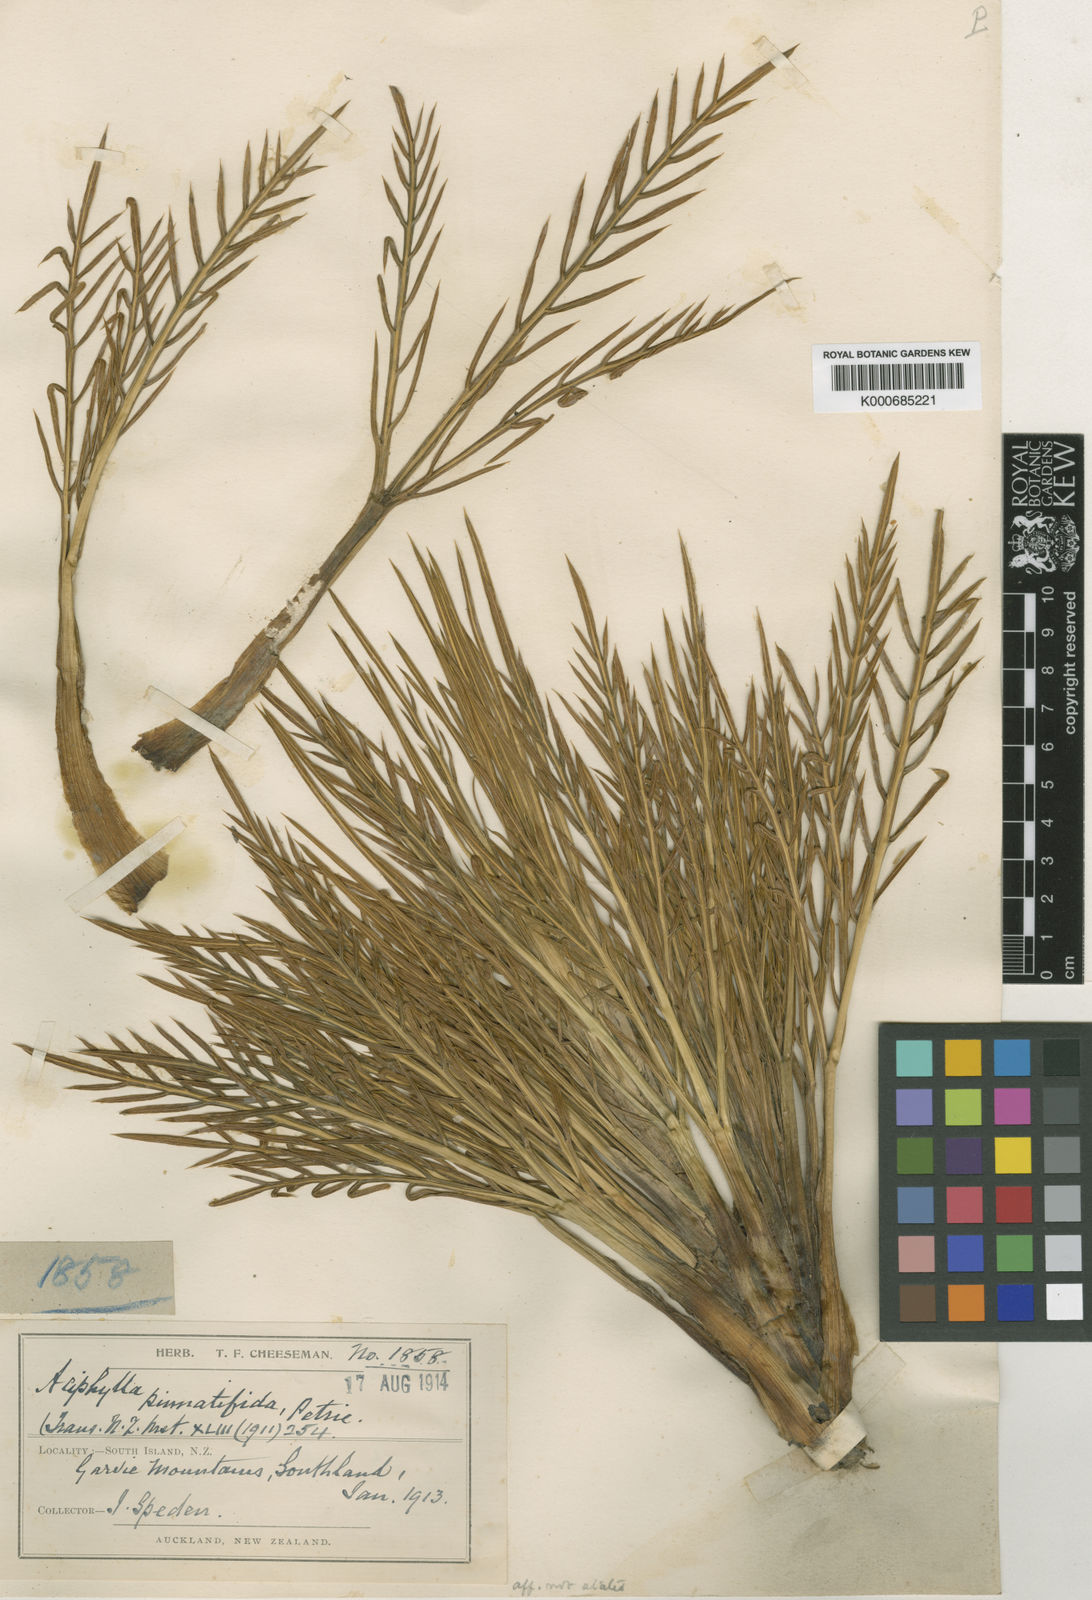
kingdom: Plantae
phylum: Tracheophyta
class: Magnoliopsida
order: Apiales
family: Apiaceae
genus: Aciphylla
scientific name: Aciphylla pinnatifida
